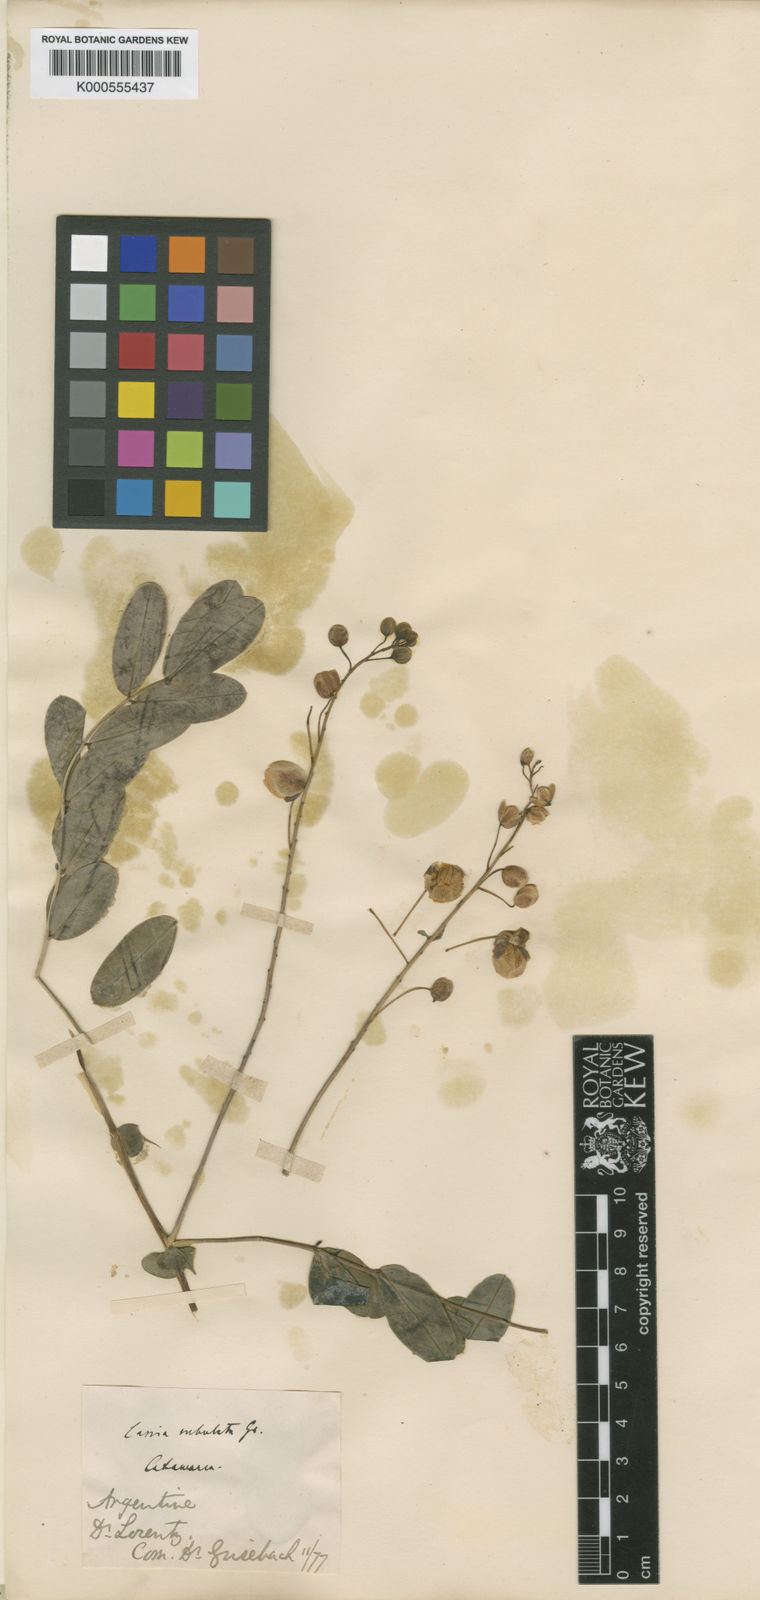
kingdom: Plantae
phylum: Tracheophyta
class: Magnoliopsida
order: Fabales
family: Fabaceae
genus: Senna
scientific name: Senna subulata
